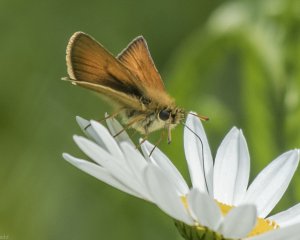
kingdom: Animalia
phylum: Arthropoda
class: Insecta
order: Lepidoptera
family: Hesperiidae
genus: Thymelicus
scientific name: Thymelicus lineola
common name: European Skipper
